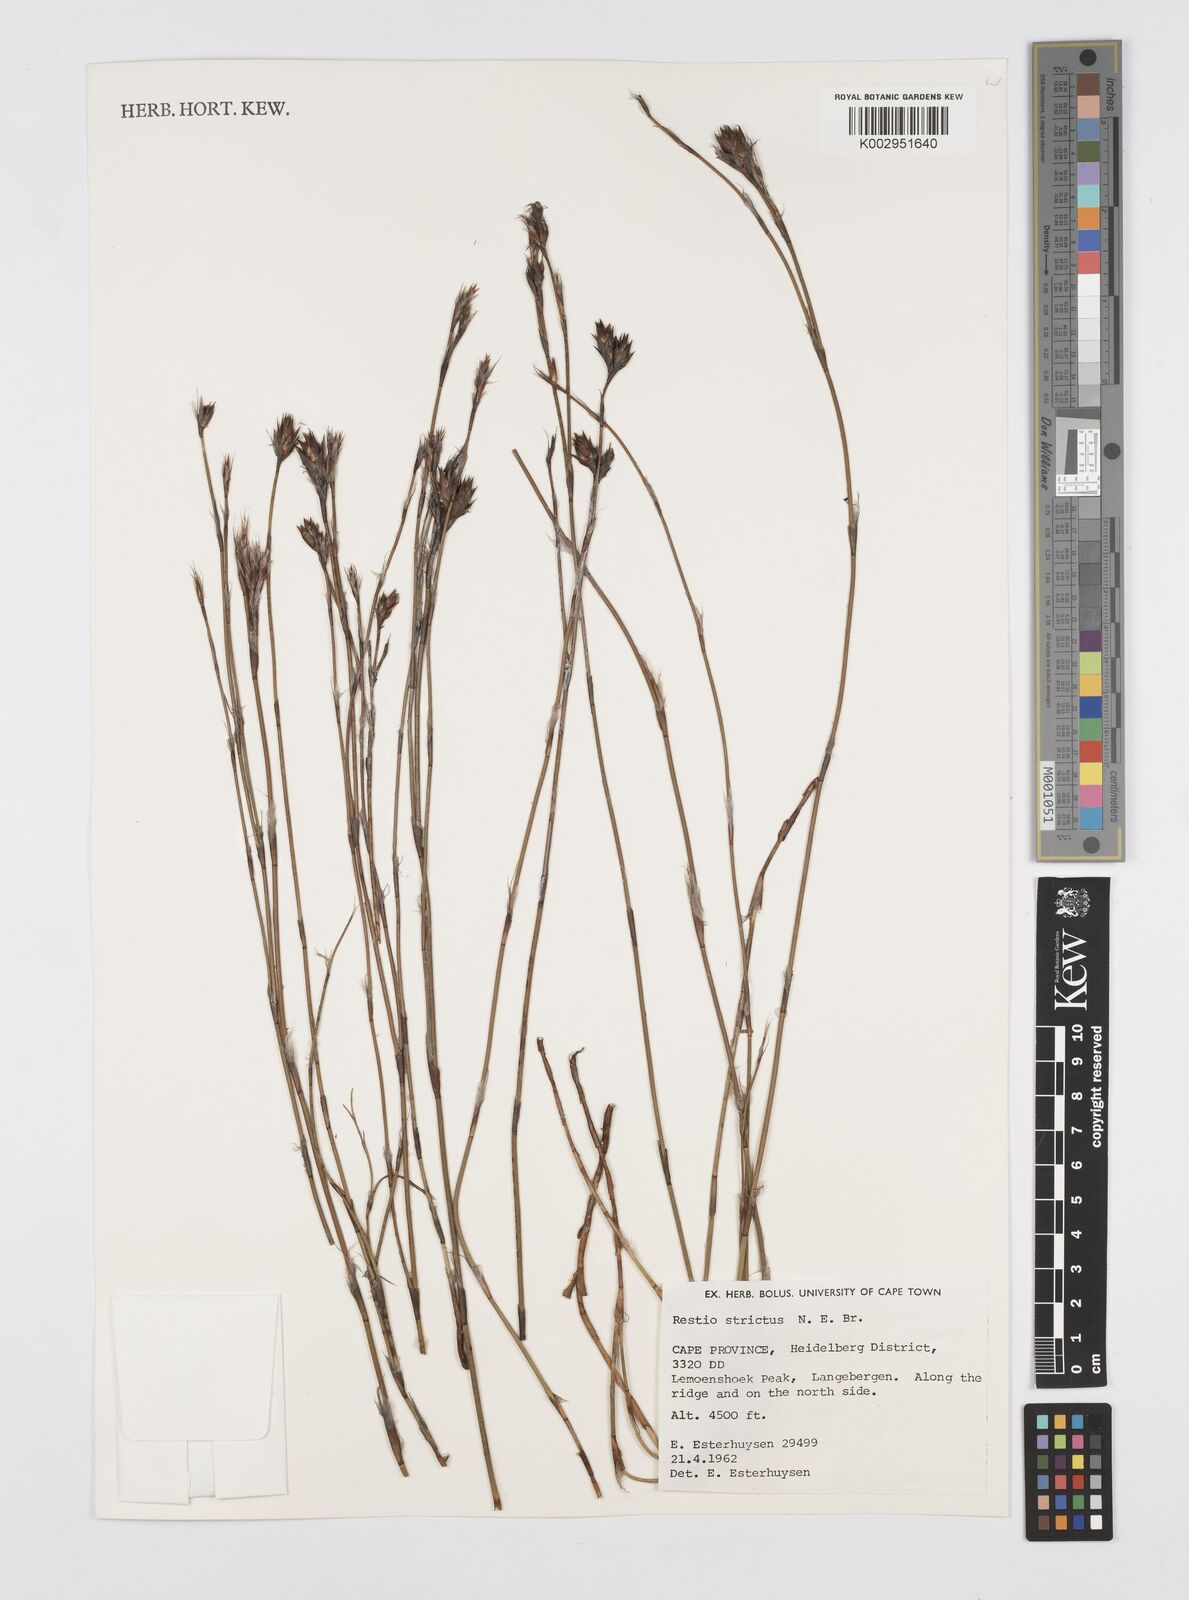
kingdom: Plantae
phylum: Tracheophyta
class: Liliopsida
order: Poales
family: Restionaceae
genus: Restio
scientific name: Restio strictus
